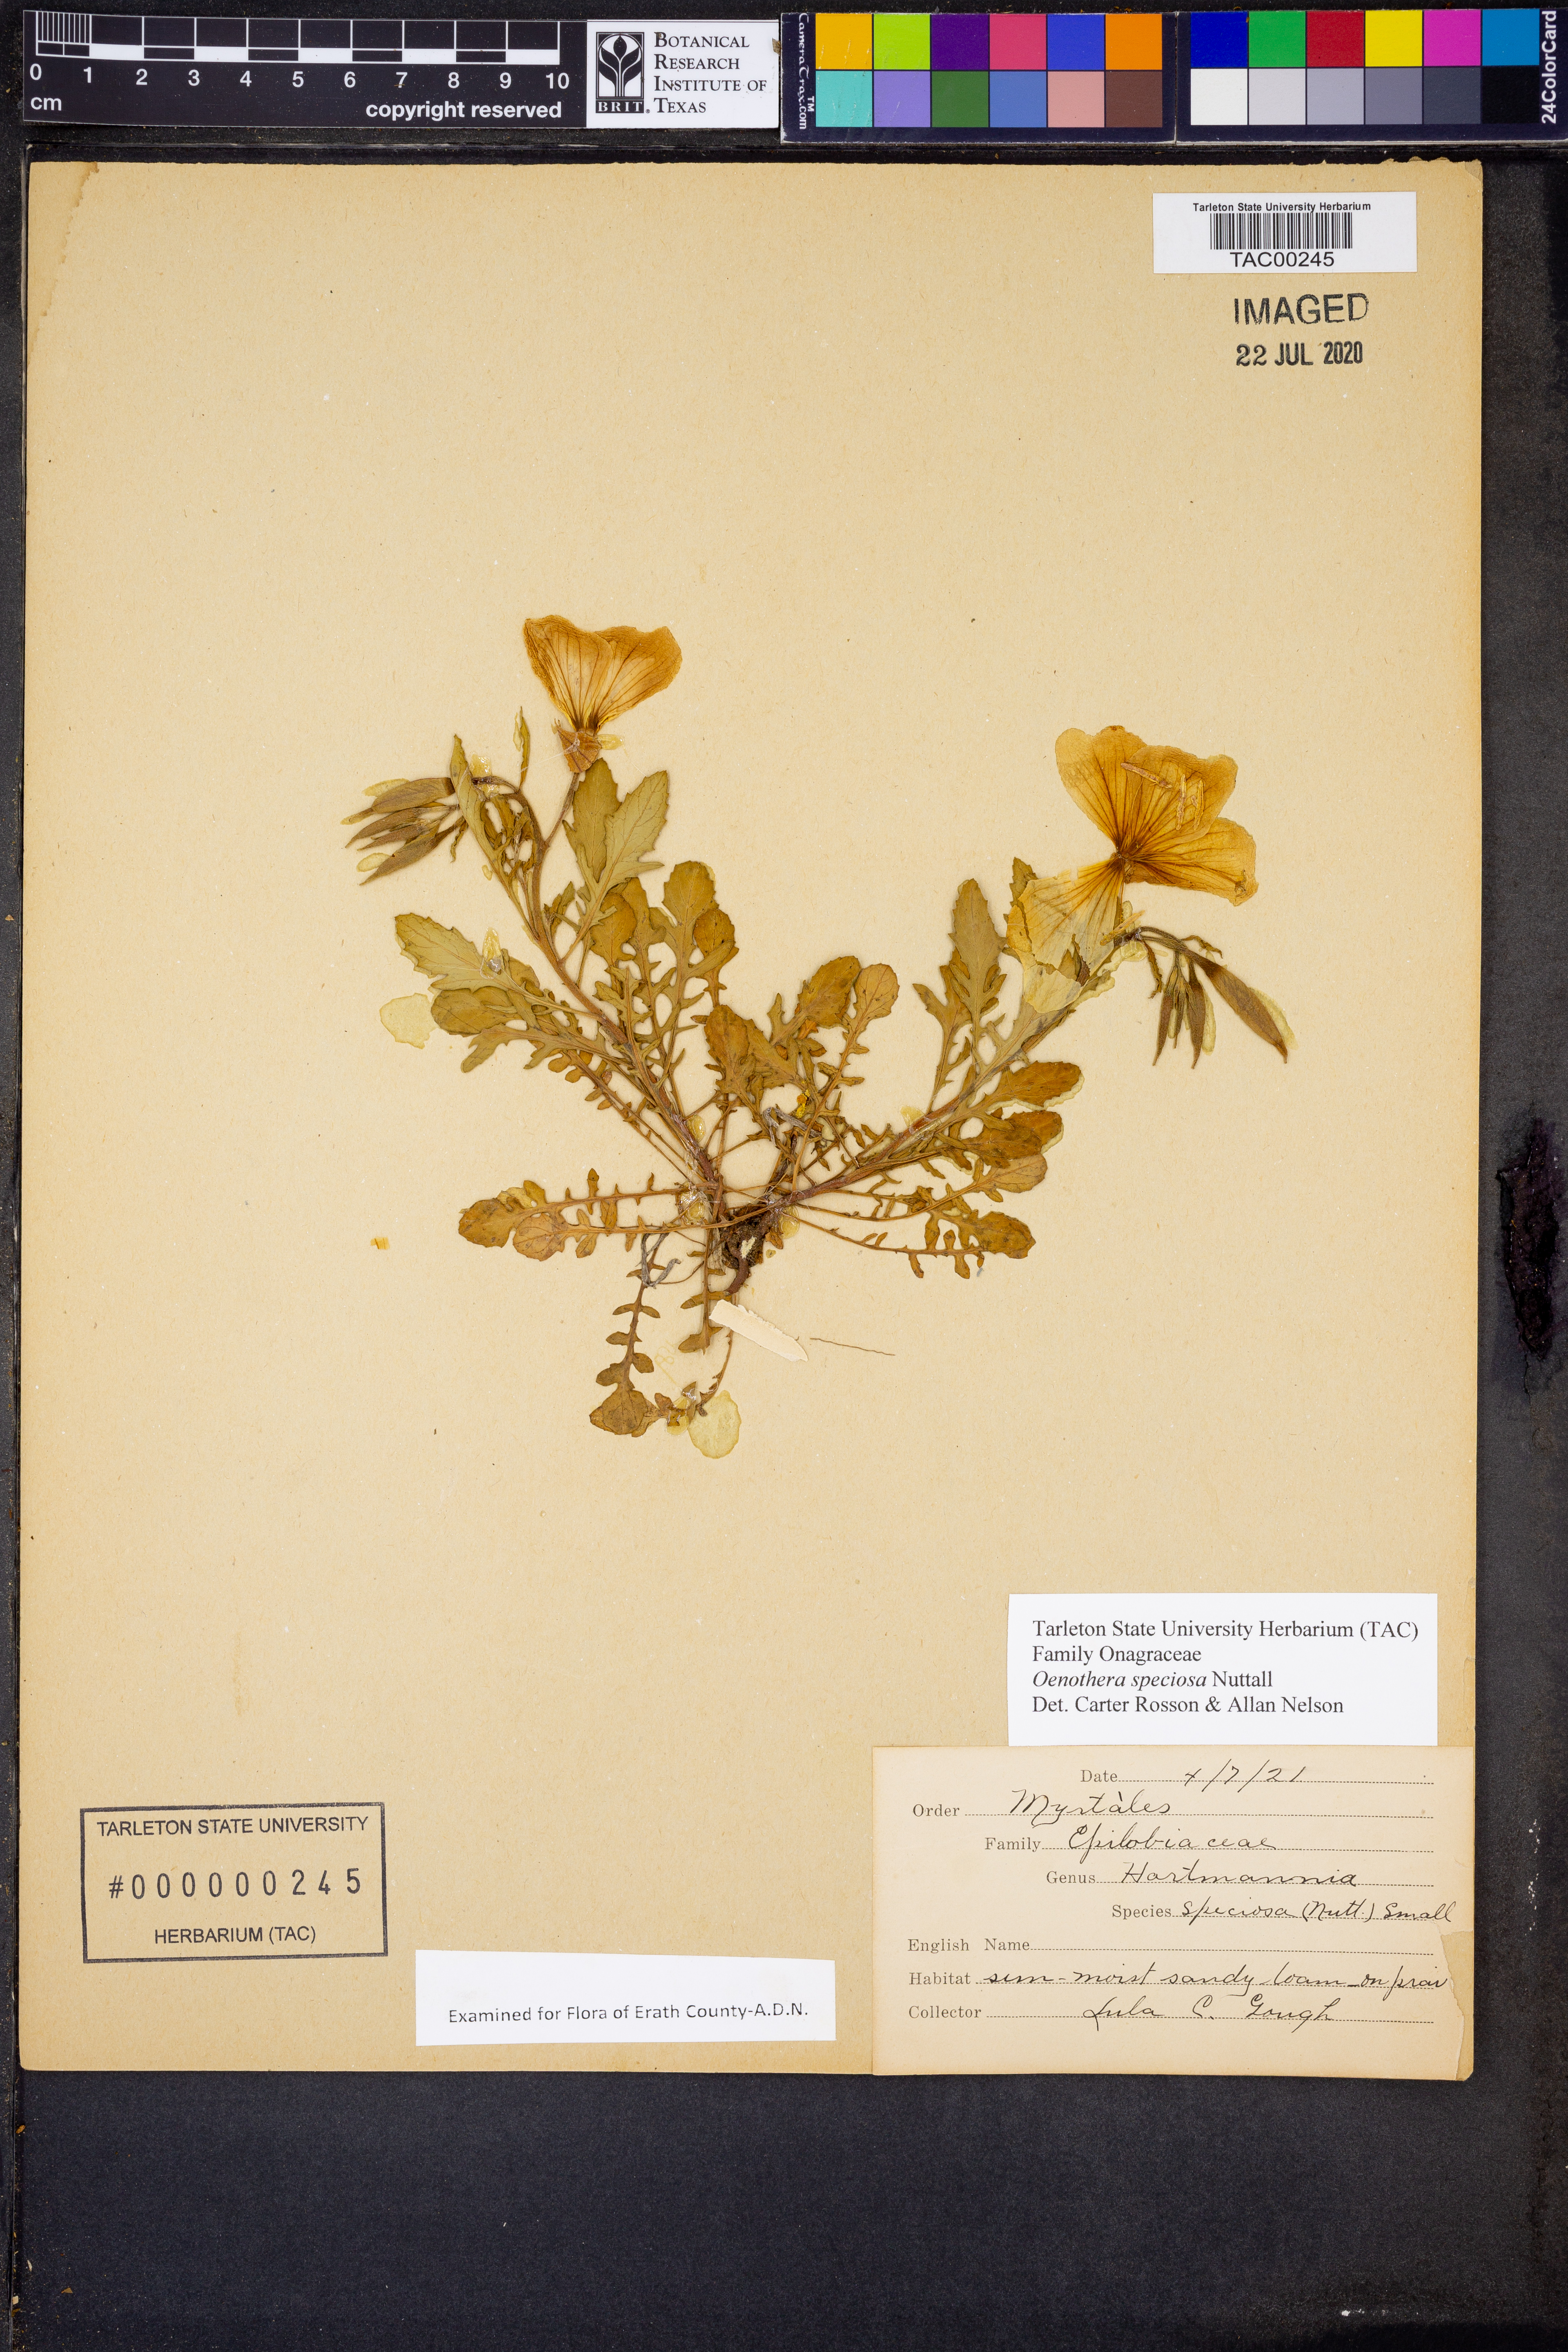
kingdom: Plantae
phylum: Tracheophyta
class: Magnoliopsida
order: Myrtales
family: Onagraceae
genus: Oenothera
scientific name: Oenothera speciosa
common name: White evening-primrose
